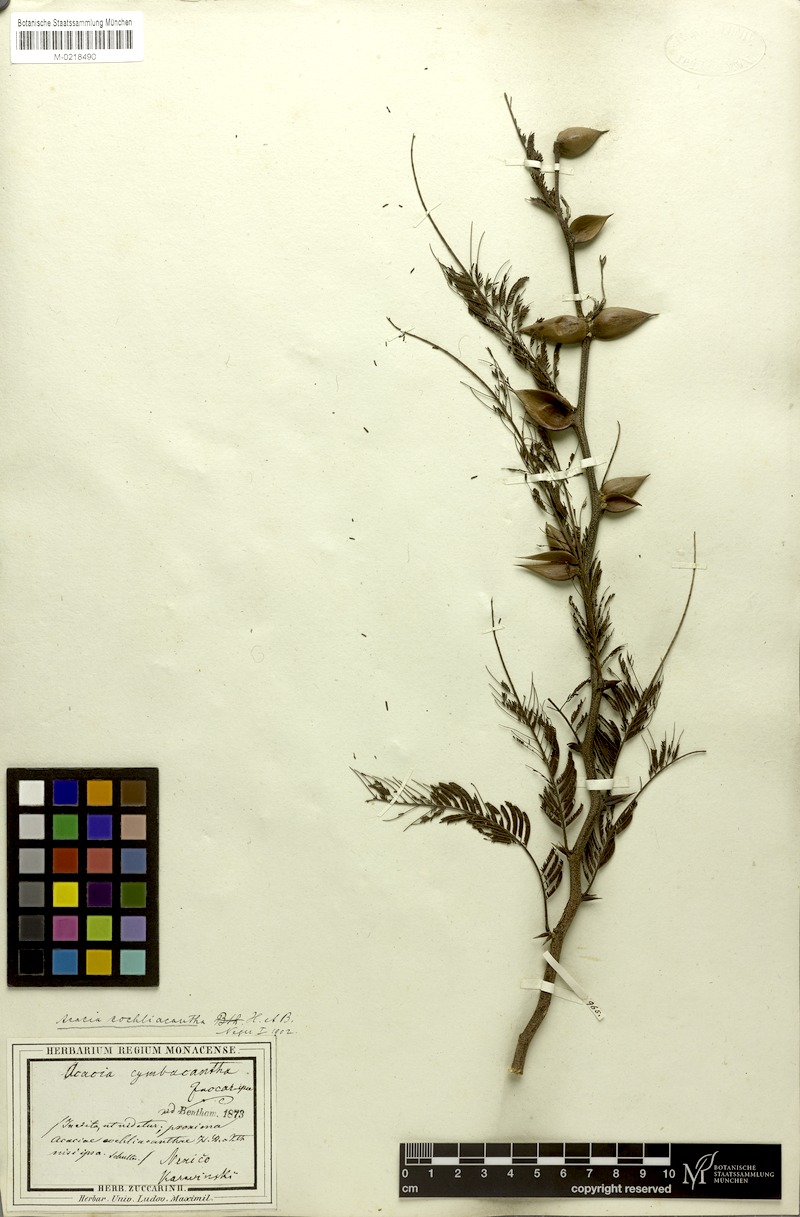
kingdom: Plantae
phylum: Tracheophyta
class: Magnoliopsida
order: Fabales
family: Fabaceae
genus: Vachellia
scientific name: Vachellia campeachiana
